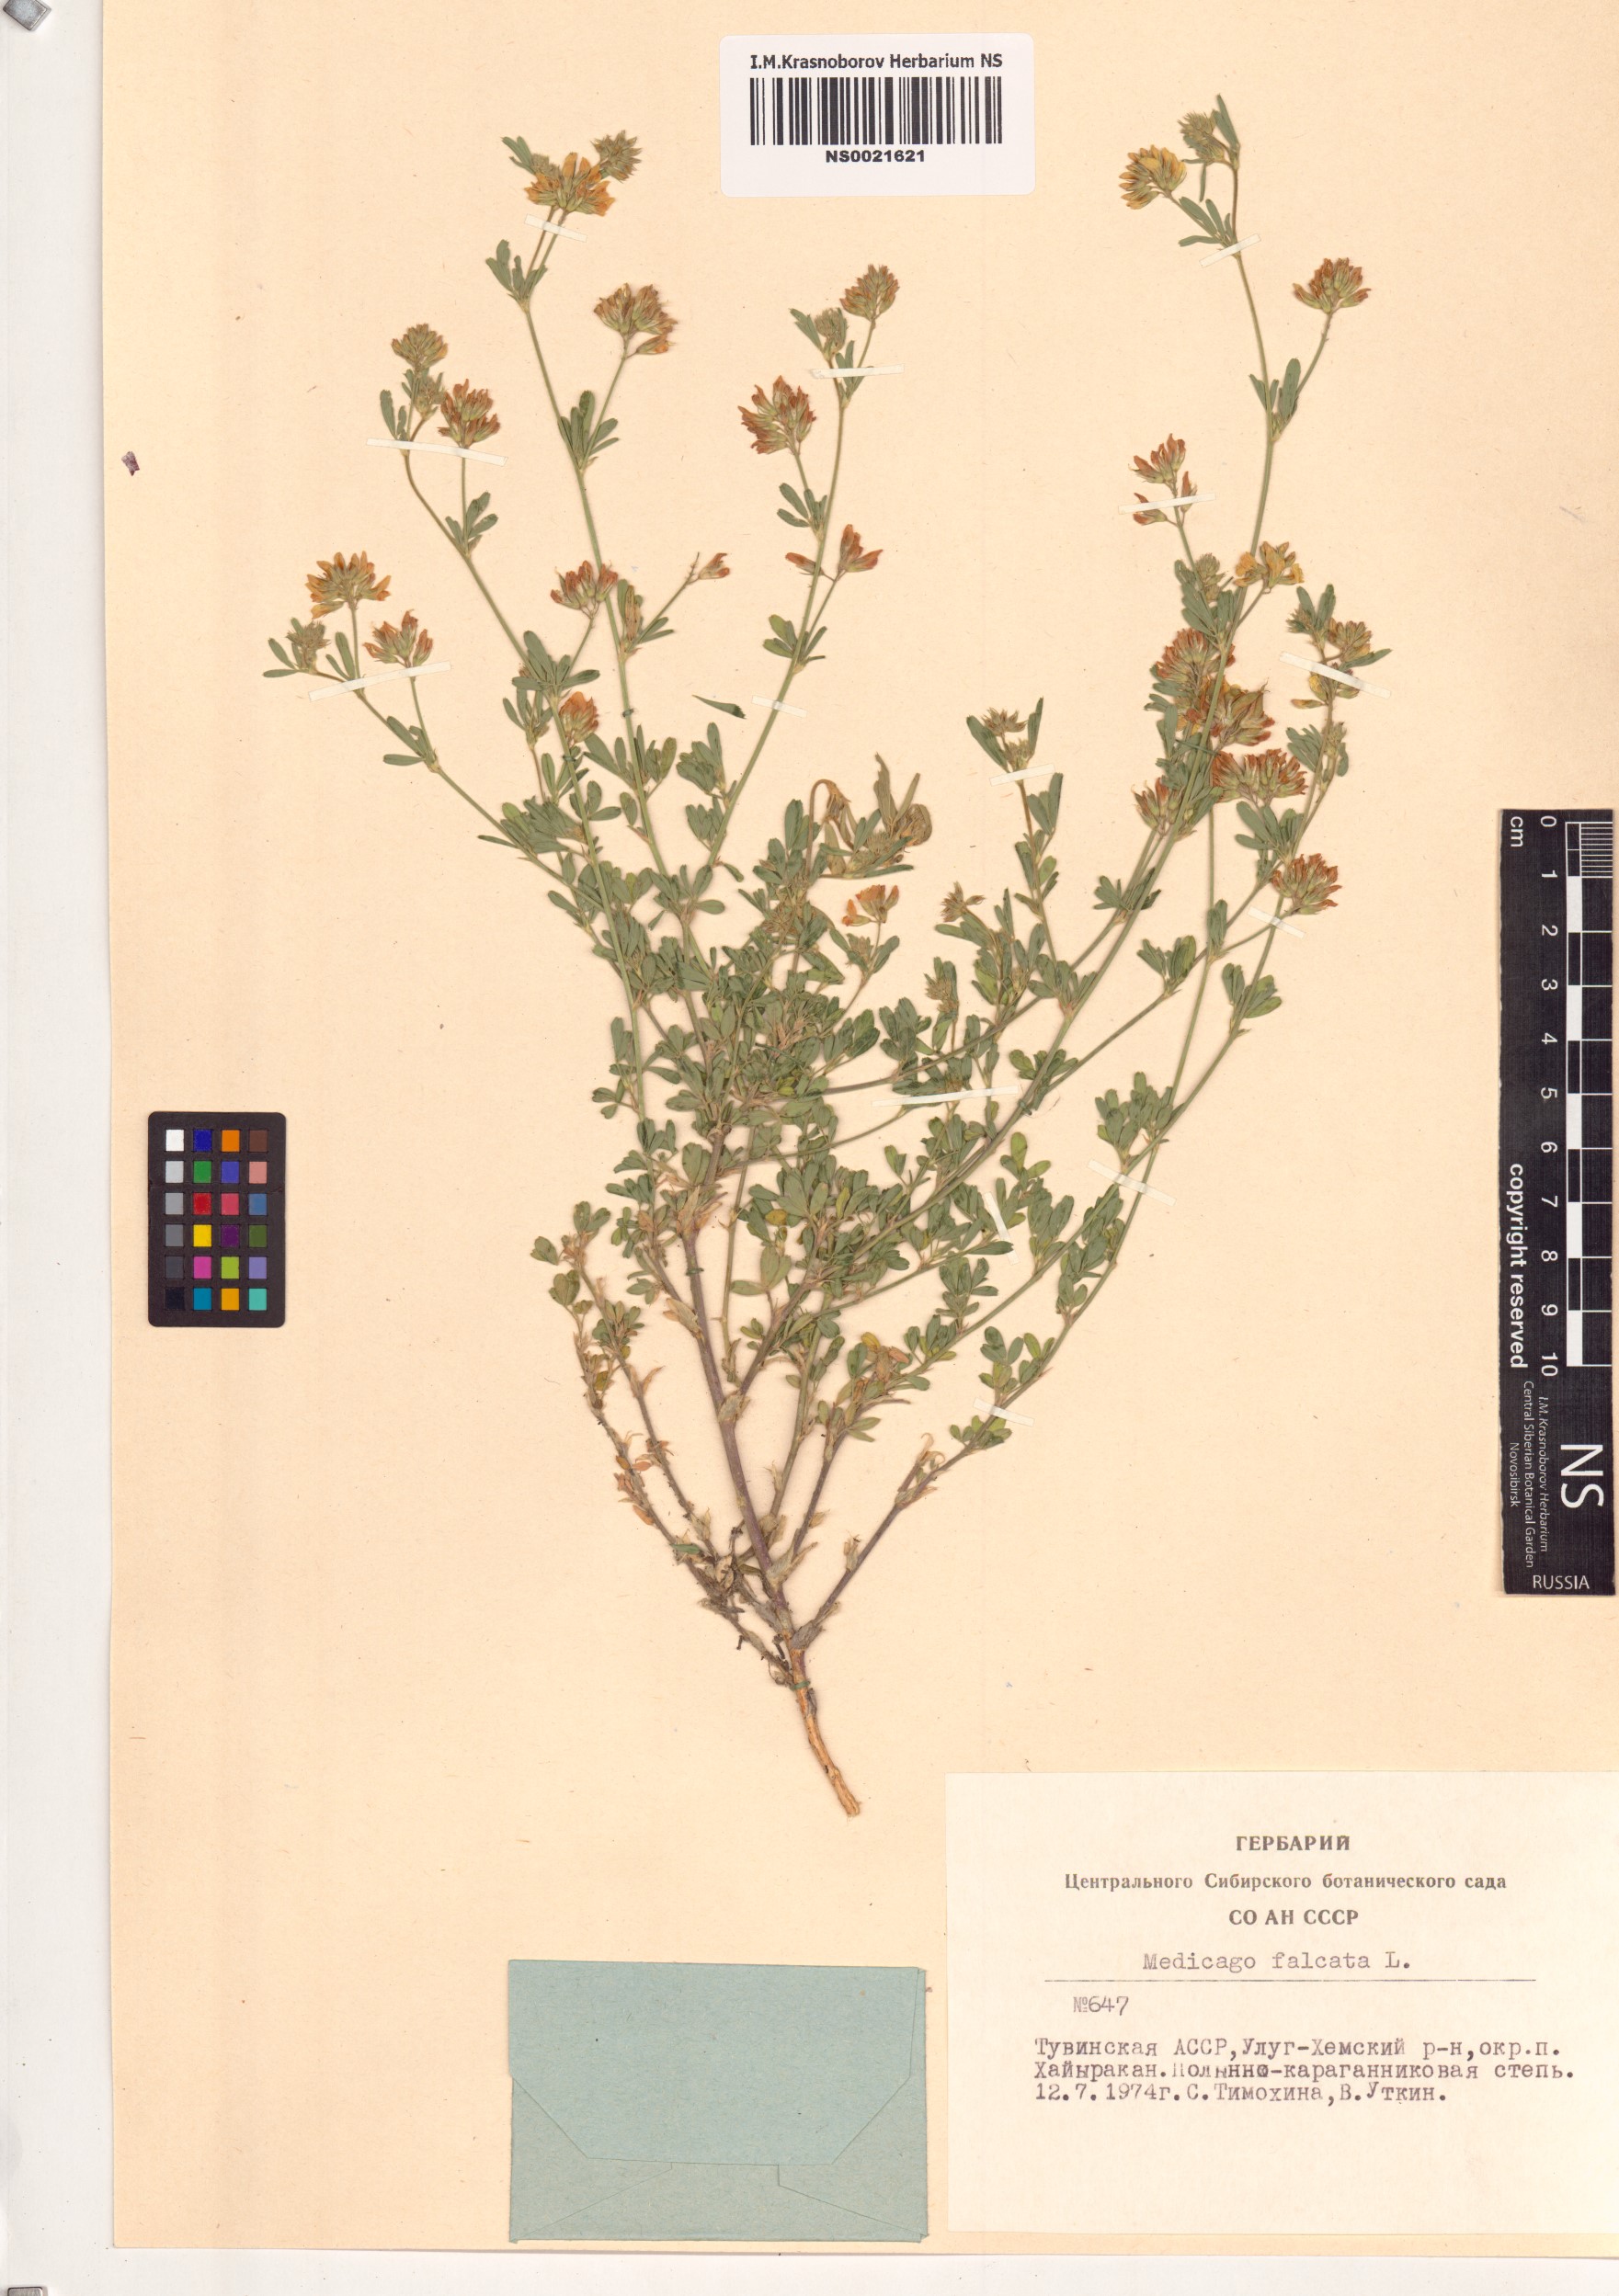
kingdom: Plantae
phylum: Tracheophyta
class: Magnoliopsida
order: Fabales
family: Fabaceae
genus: Medicago
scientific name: Medicago falcata
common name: Sickle medick
